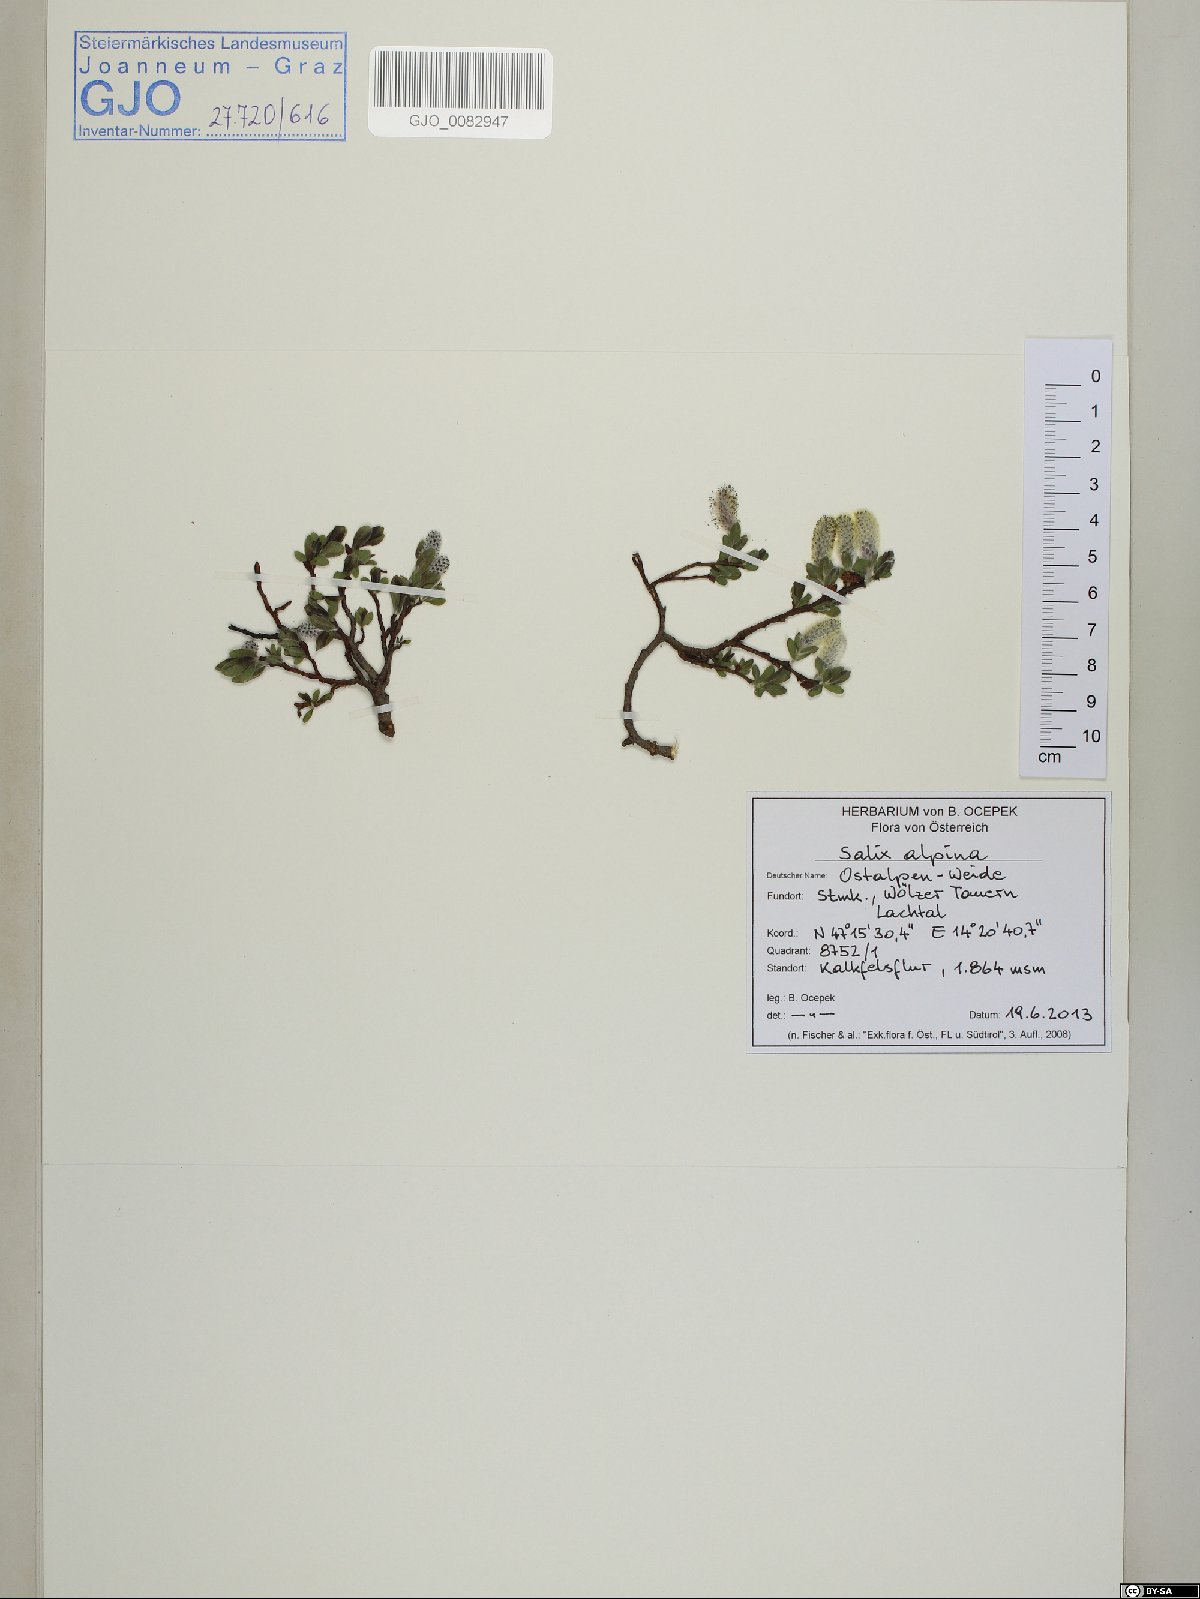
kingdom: Plantae
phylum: Tracheophyta
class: Magnoliopsida
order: Malpighiales
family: Salicaceae
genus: Salix
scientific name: Salix alpina
